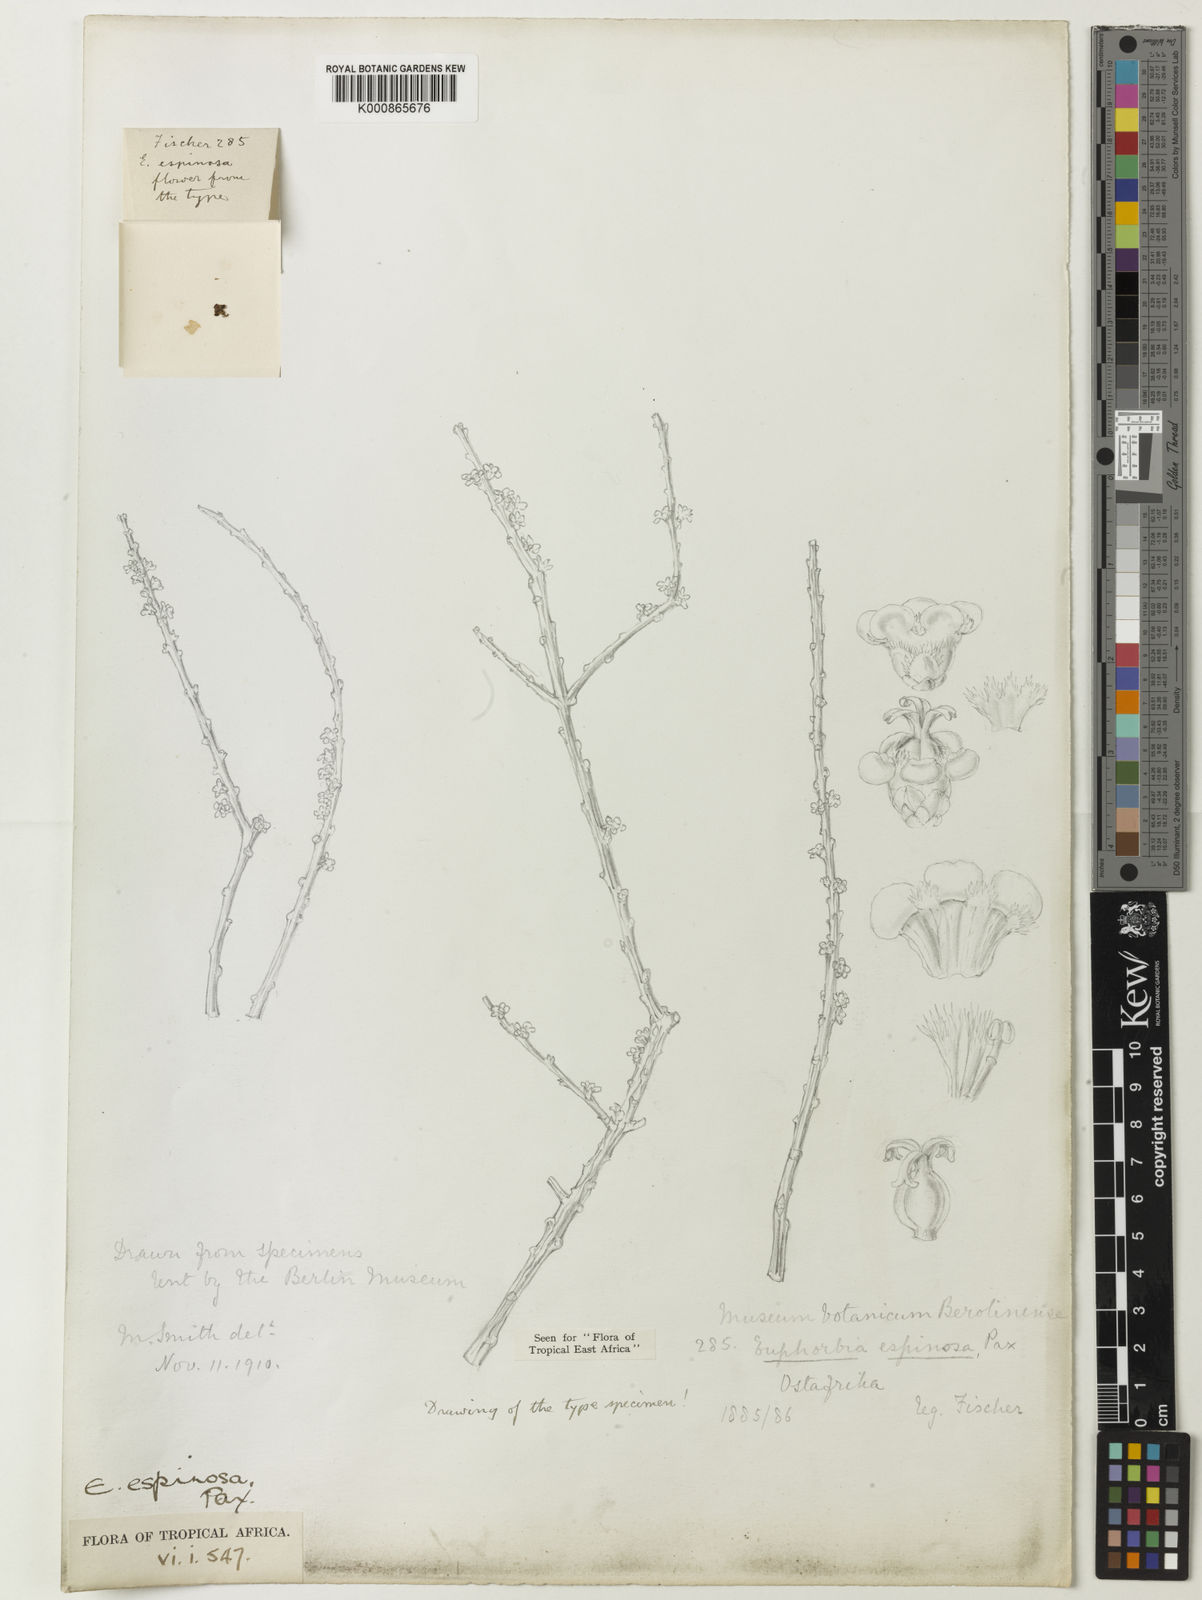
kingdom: Plantae
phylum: Tracheophyta
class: Magnoliopsida
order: Malpighiales
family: Euphorbiaceae
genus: Euphorbia
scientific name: Euphorbia espinosa
